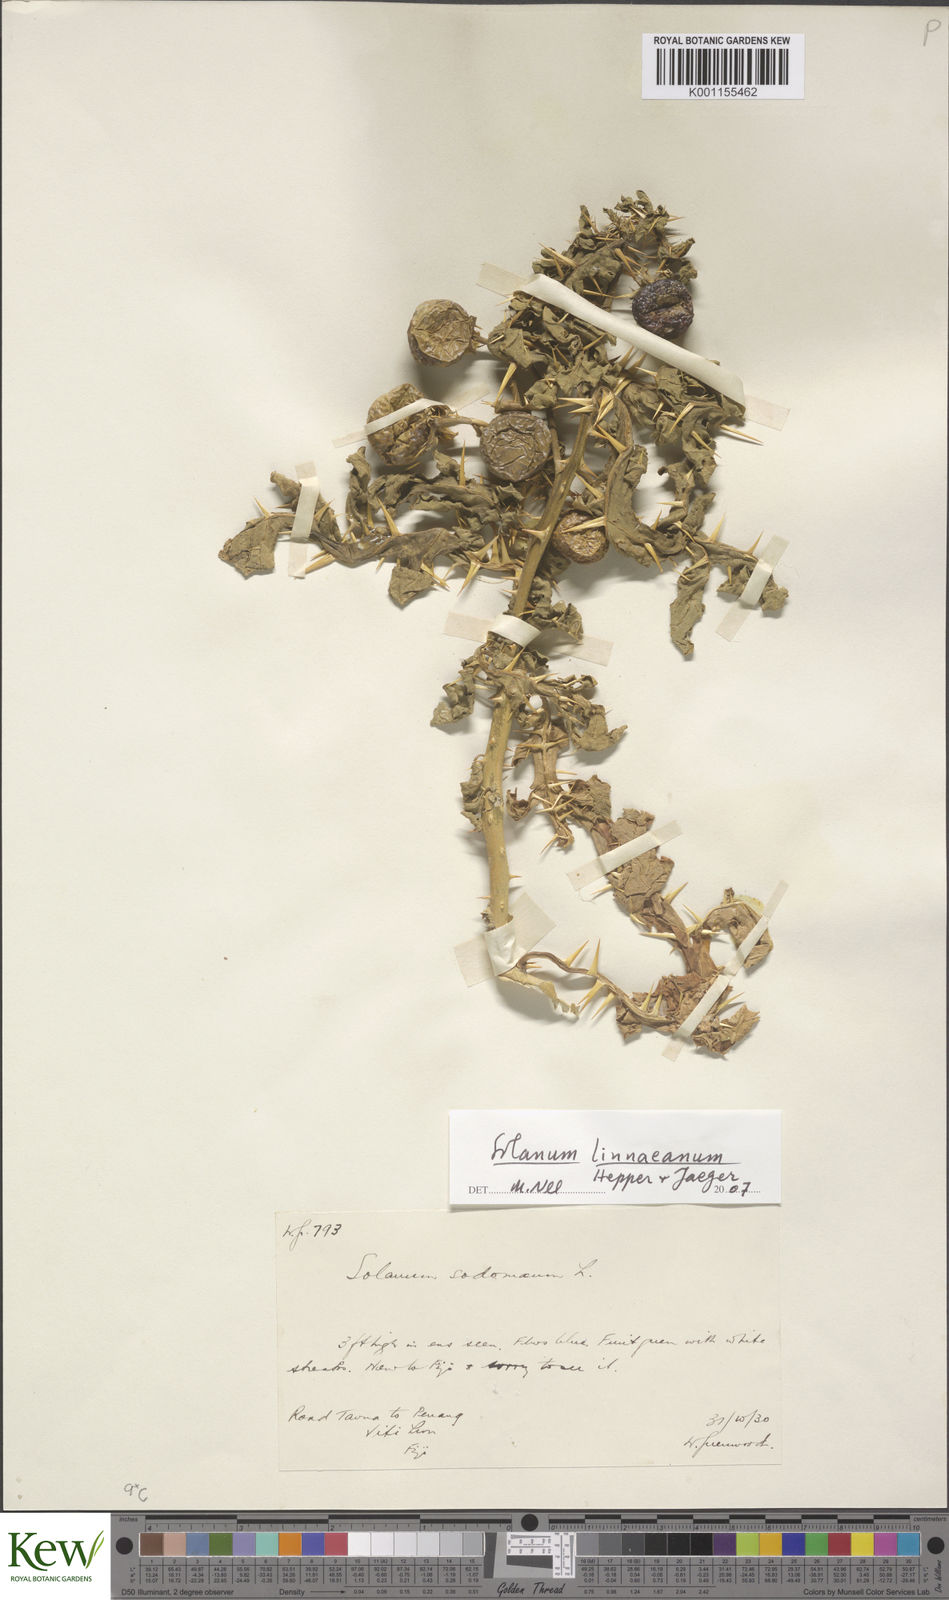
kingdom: Plantae
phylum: Tracheophyta
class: Magnoliopsida
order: Solanales
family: Solanaceae
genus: Solanum
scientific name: Solanum linnaeanum
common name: Nightshade
